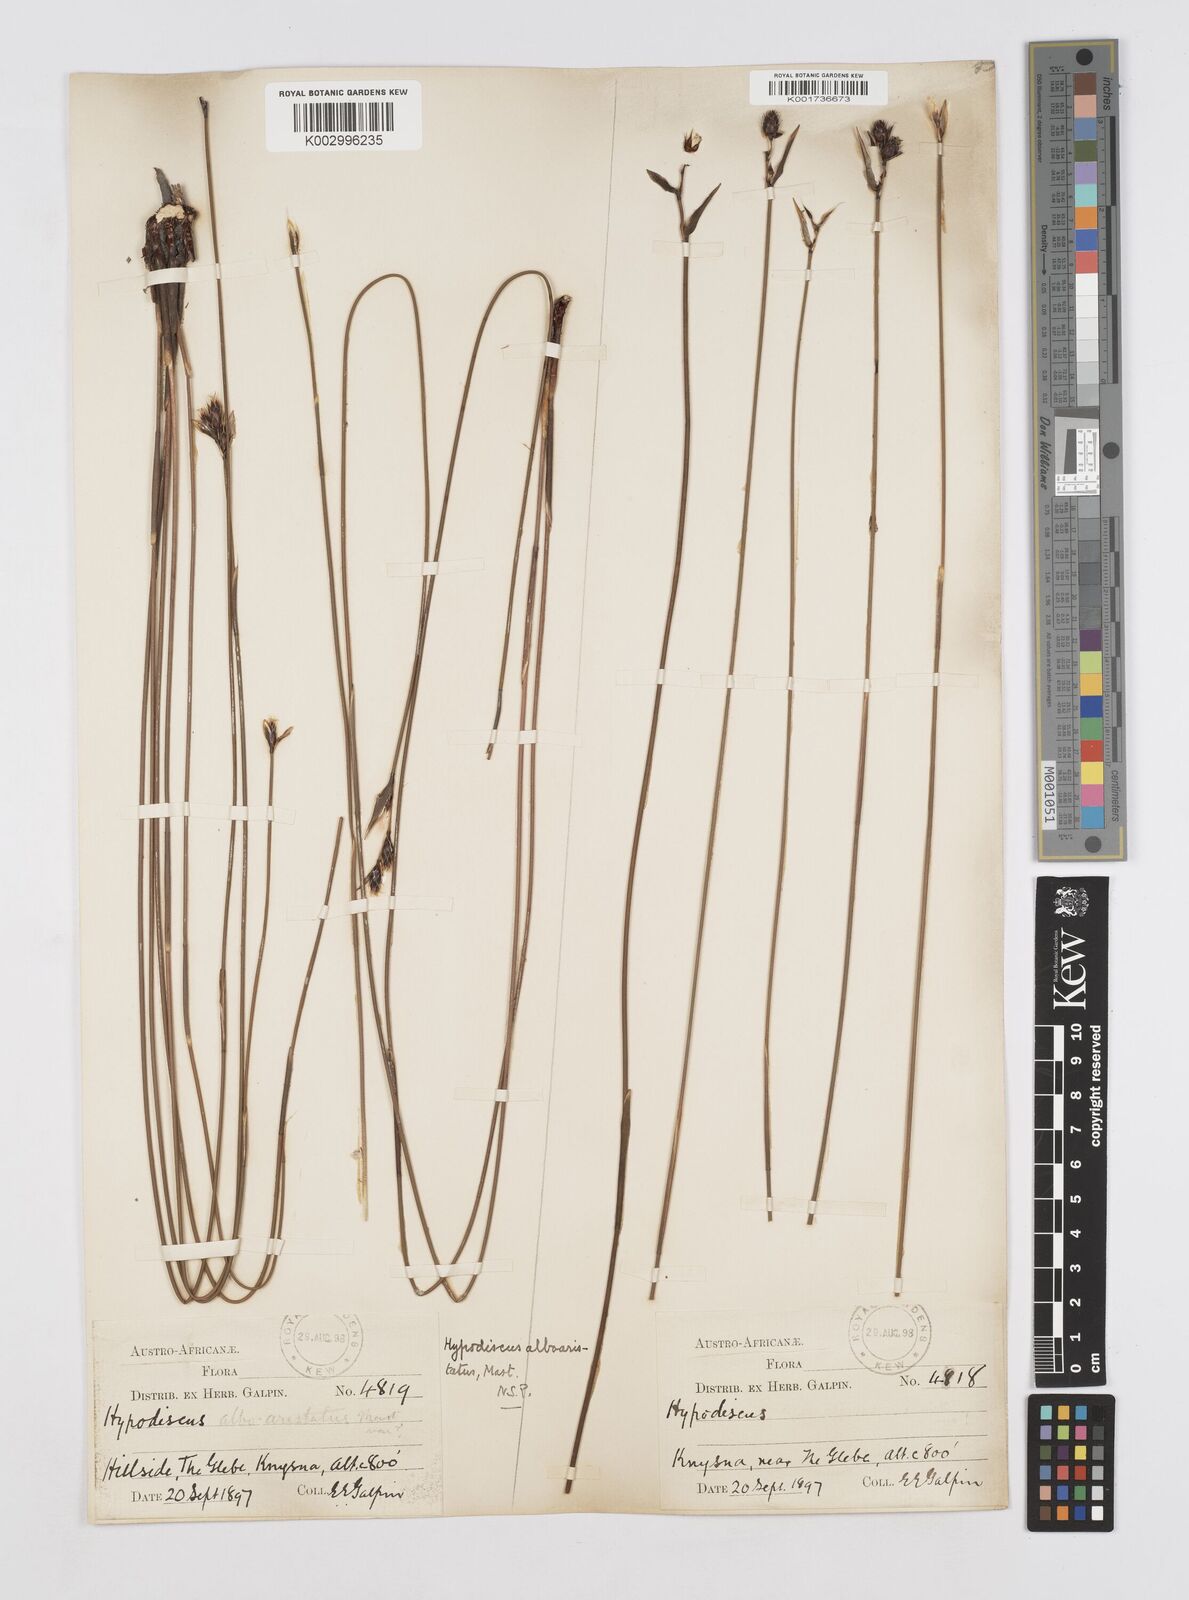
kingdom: Plantae
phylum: Tracheophyta
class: Liliopsida
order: Poales
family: Restionaceae
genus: Hypodiscus
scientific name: Hypodiscus alboaristatus
